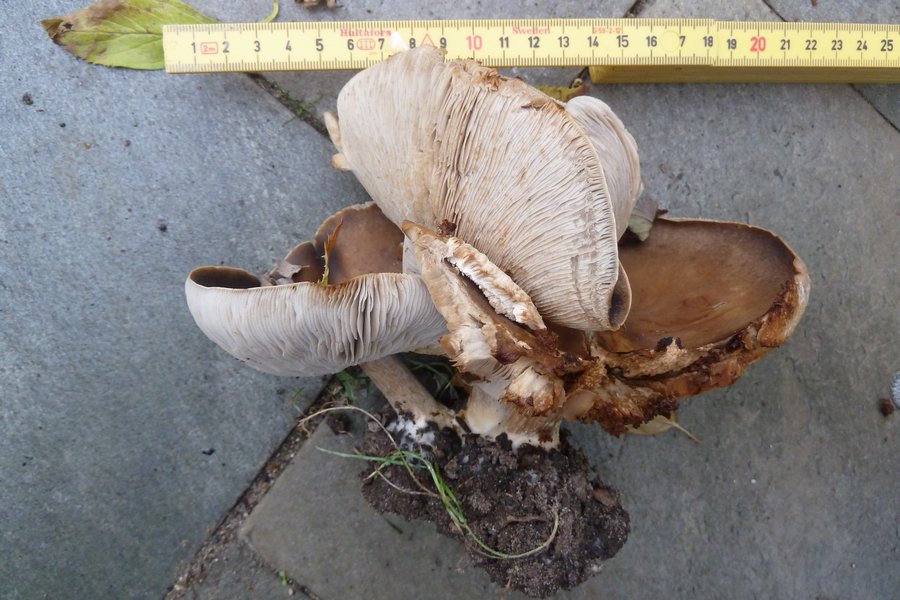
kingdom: Fungi
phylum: Basidiomycota
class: Agaricomycetes
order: Agaricales
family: Tricholomataceae
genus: Melanoleuca
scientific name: Melanoleuca
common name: munkehat
